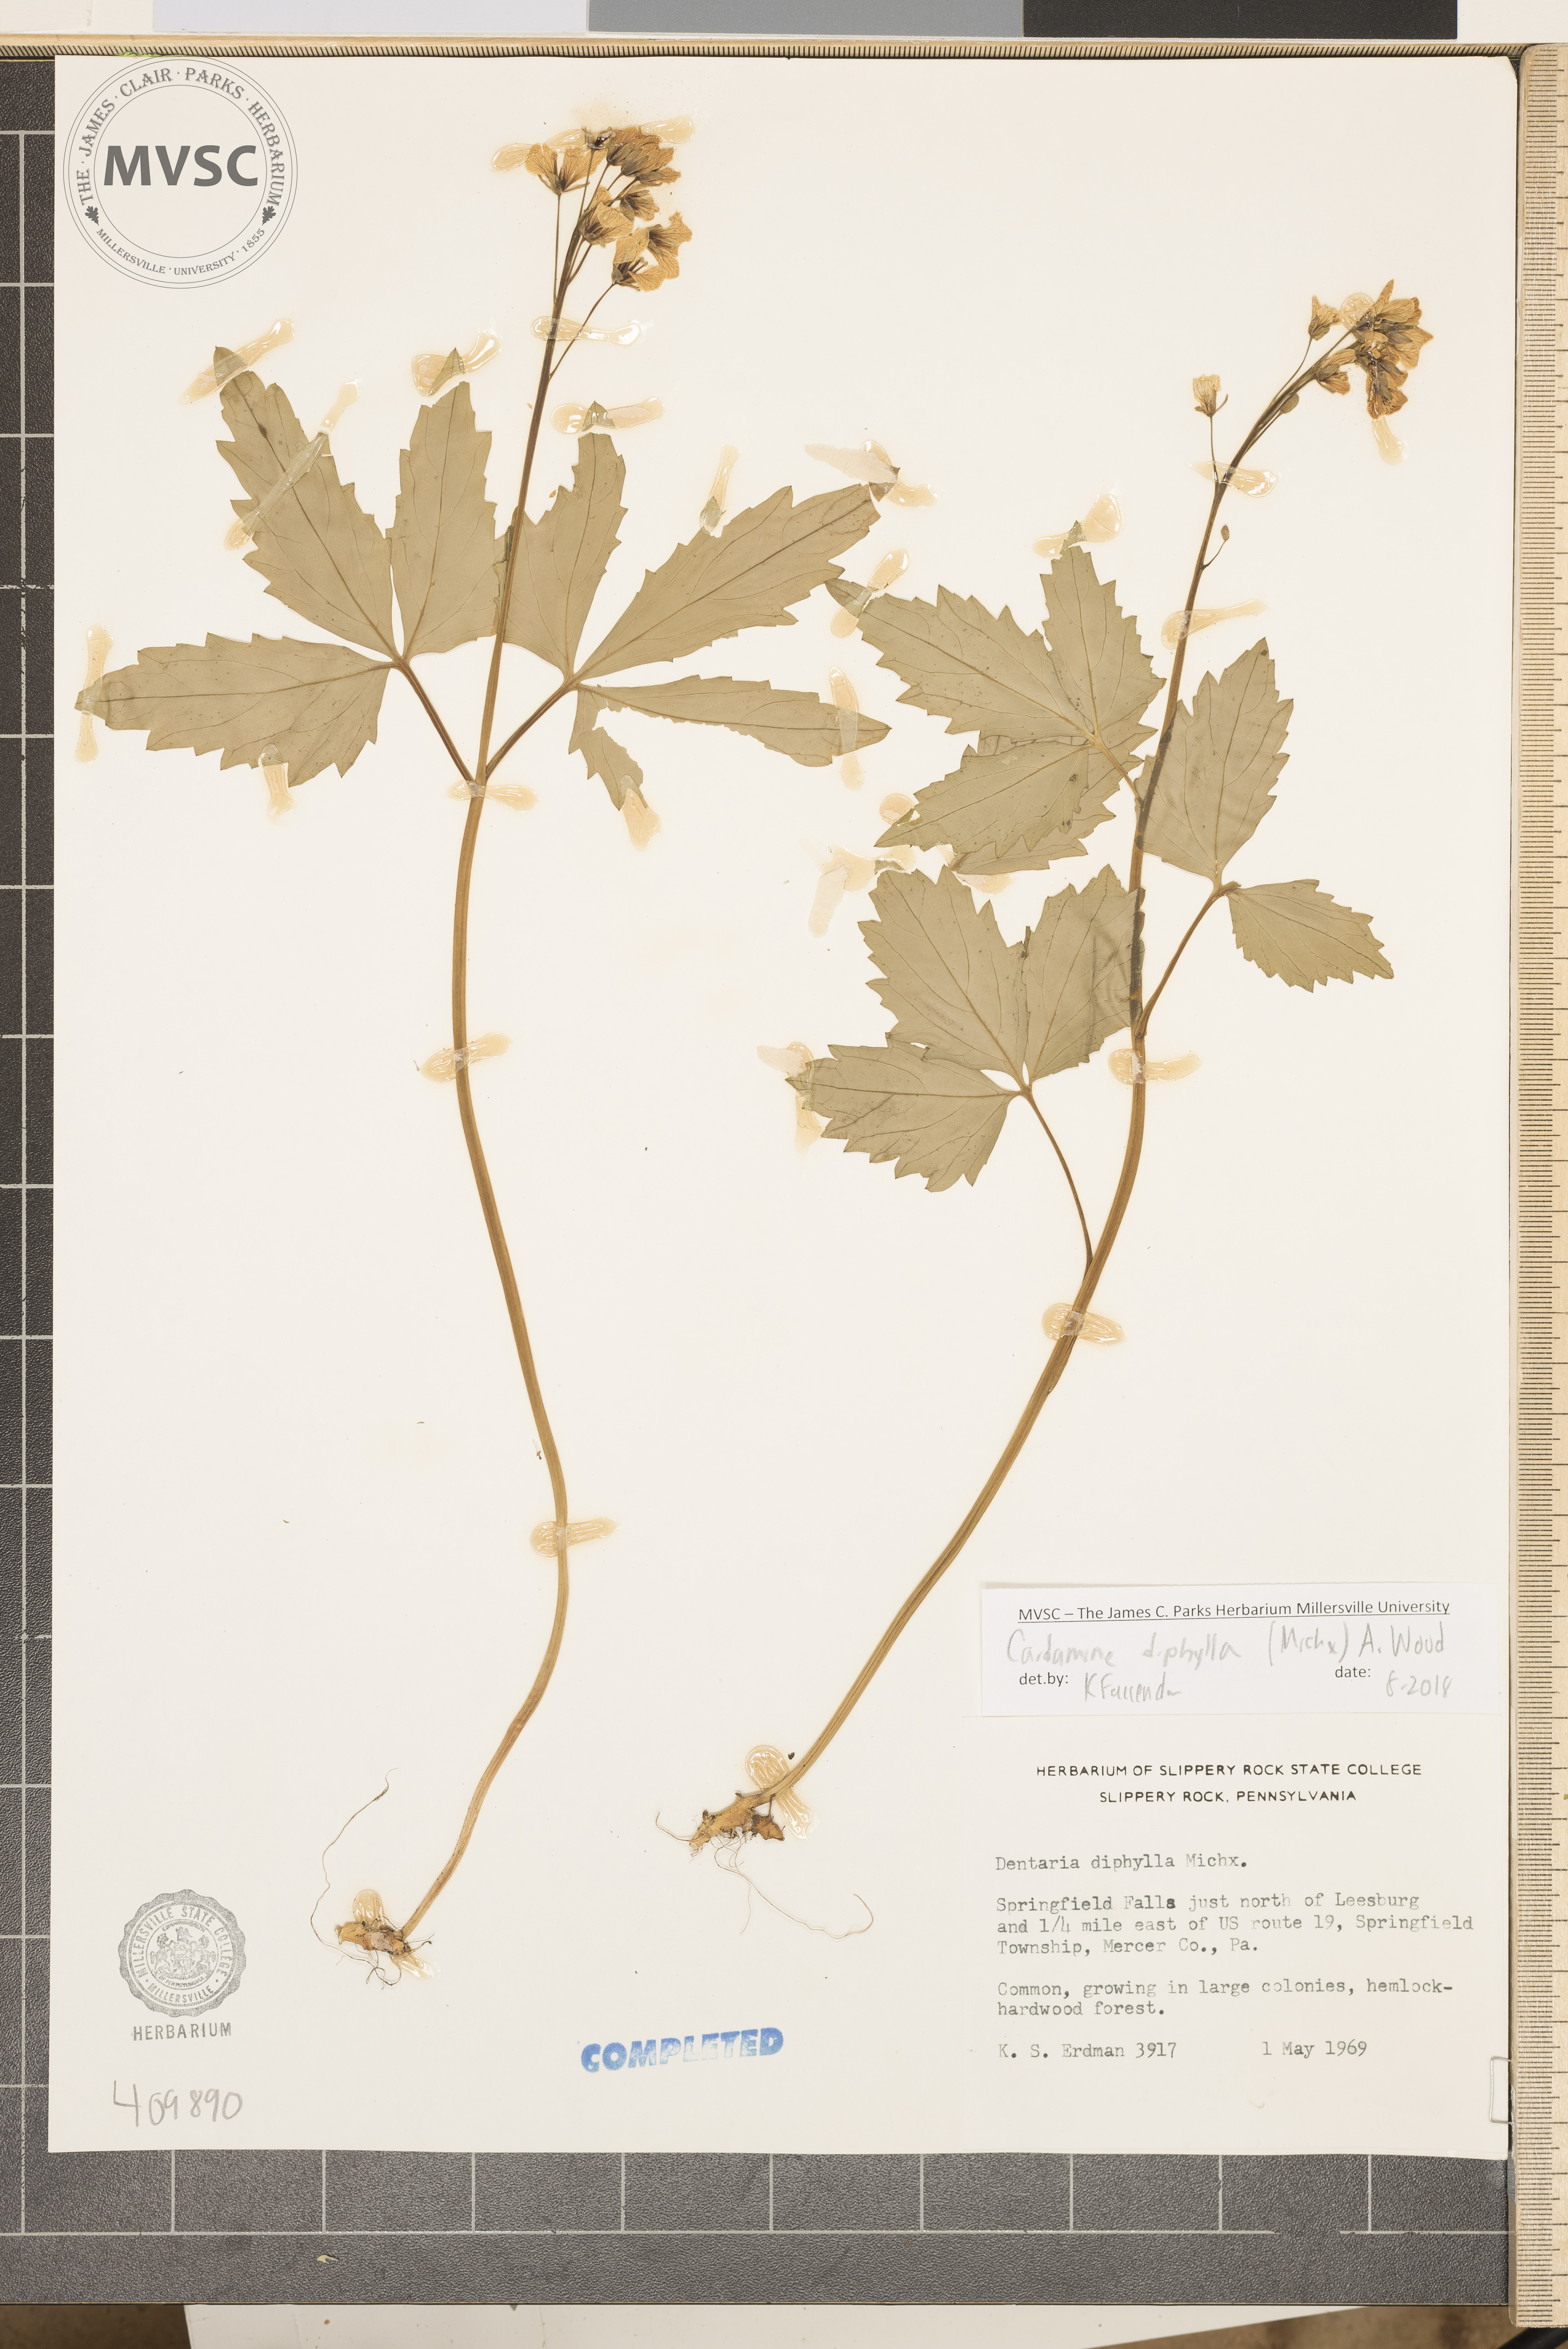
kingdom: Plantae
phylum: Tracheophyta
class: Magnoliopsida
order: Brassicales
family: Brassicaceae
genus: Cardamine
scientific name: Cardamine diphylla
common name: Broad-leaved toothwort
